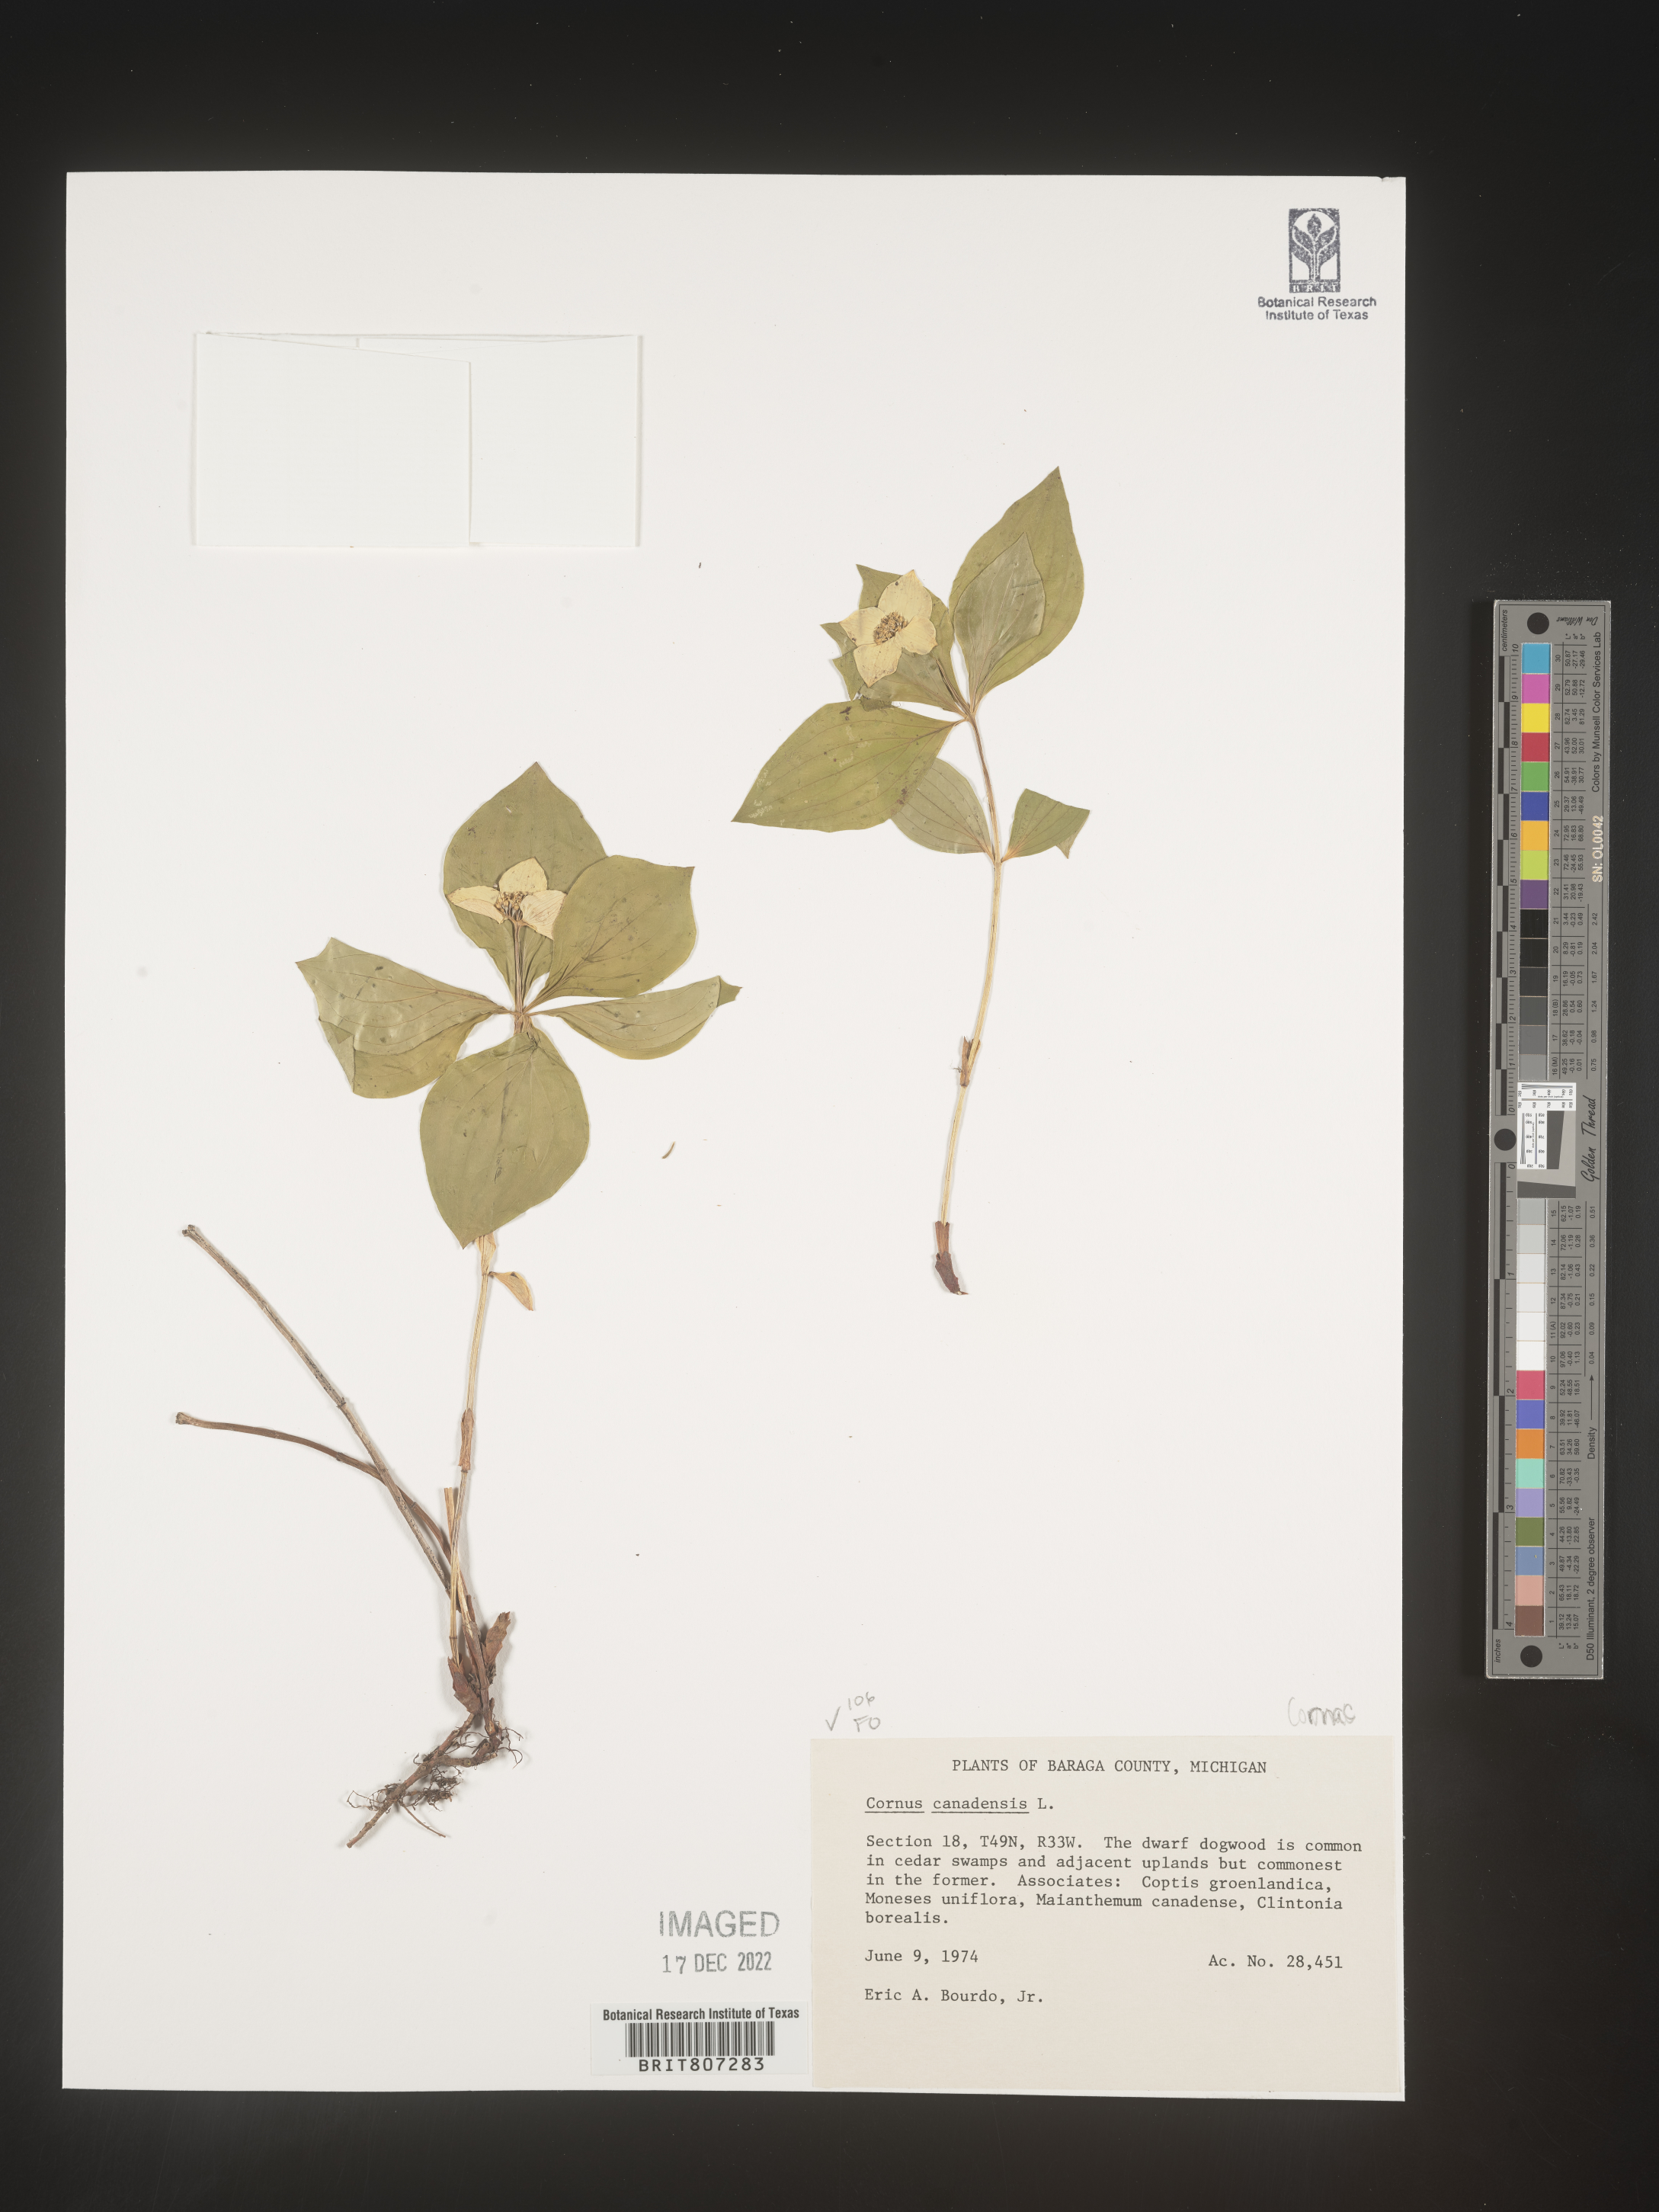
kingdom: Plantae
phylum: Tracheophyta
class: Magnoliopsida
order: Cornales
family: Cornaceae
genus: Cornus
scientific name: Cornus canadensis
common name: Creeping dogwood
